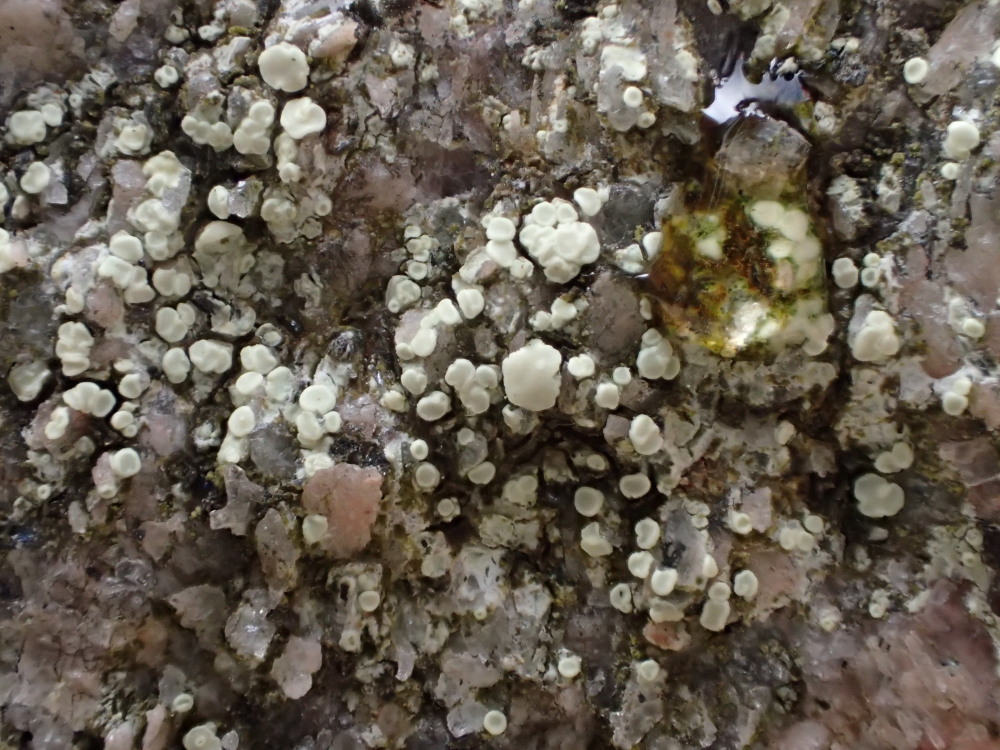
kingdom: Fungi
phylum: Ascomycota
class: Lecanoromycetes
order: Lecanorales
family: Lecanoraceae
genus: Protoparmeliopsis
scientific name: Protoparmeliopsis muralis
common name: randfliget kantskivelav
